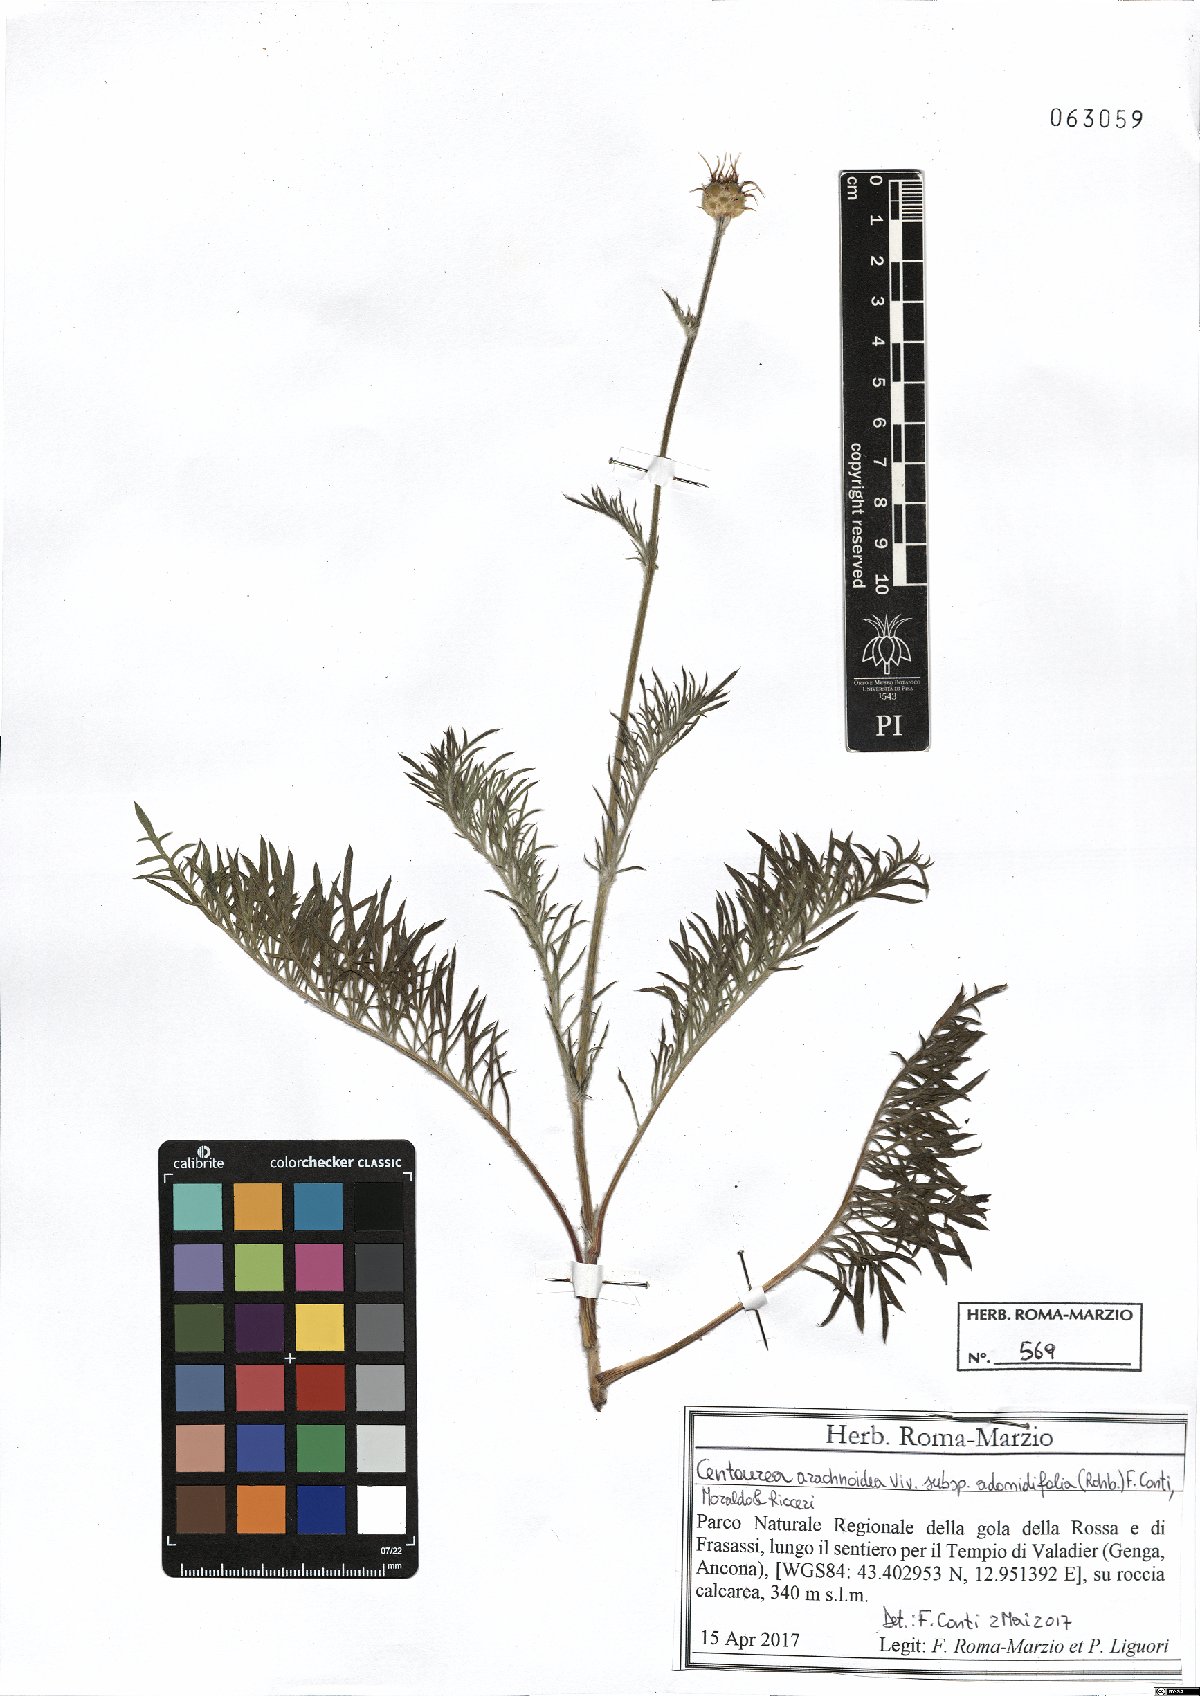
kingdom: Plantae
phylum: Tracheophyta
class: Magnoliopsida
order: Asterales
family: Asteraceae
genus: Centaurea
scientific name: Centaurea arachnoidea
